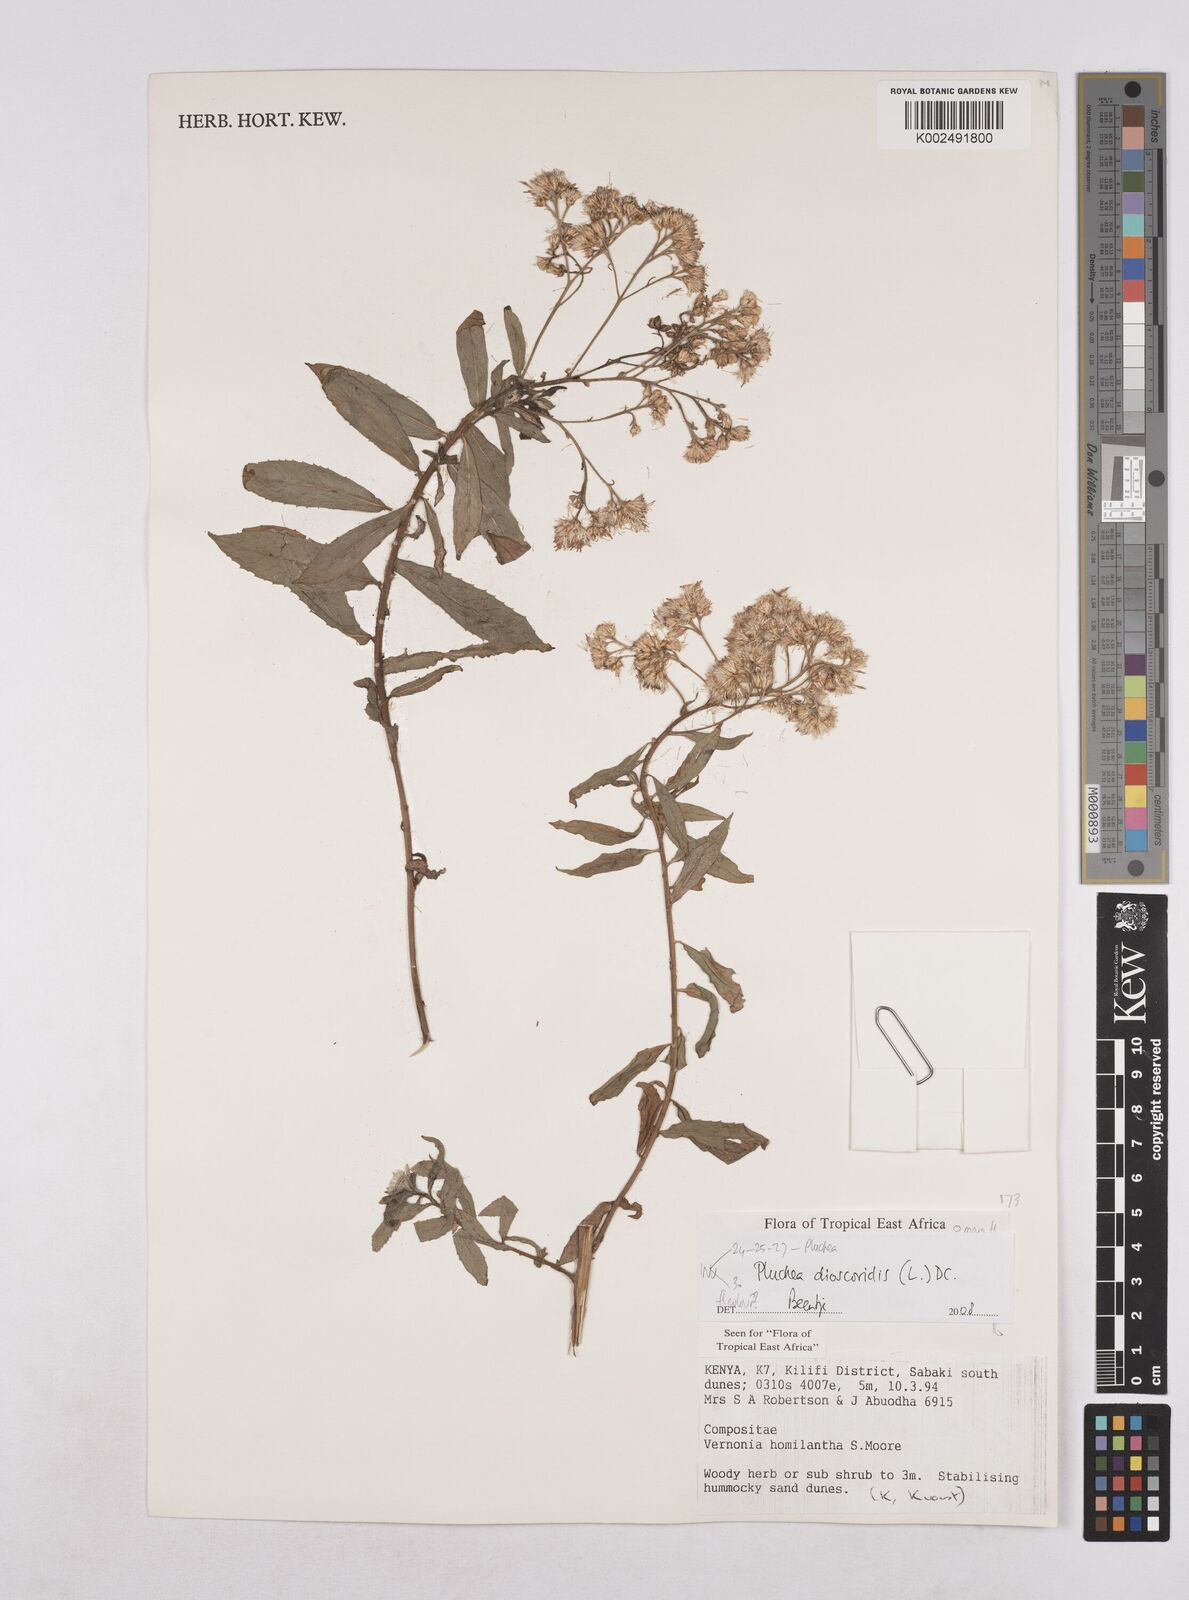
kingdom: Plantae
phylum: Tracheophyta
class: Magnoliopsida
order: Asterales
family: Asteraceae
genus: Pluchea
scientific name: Pluchea dioscoridis
